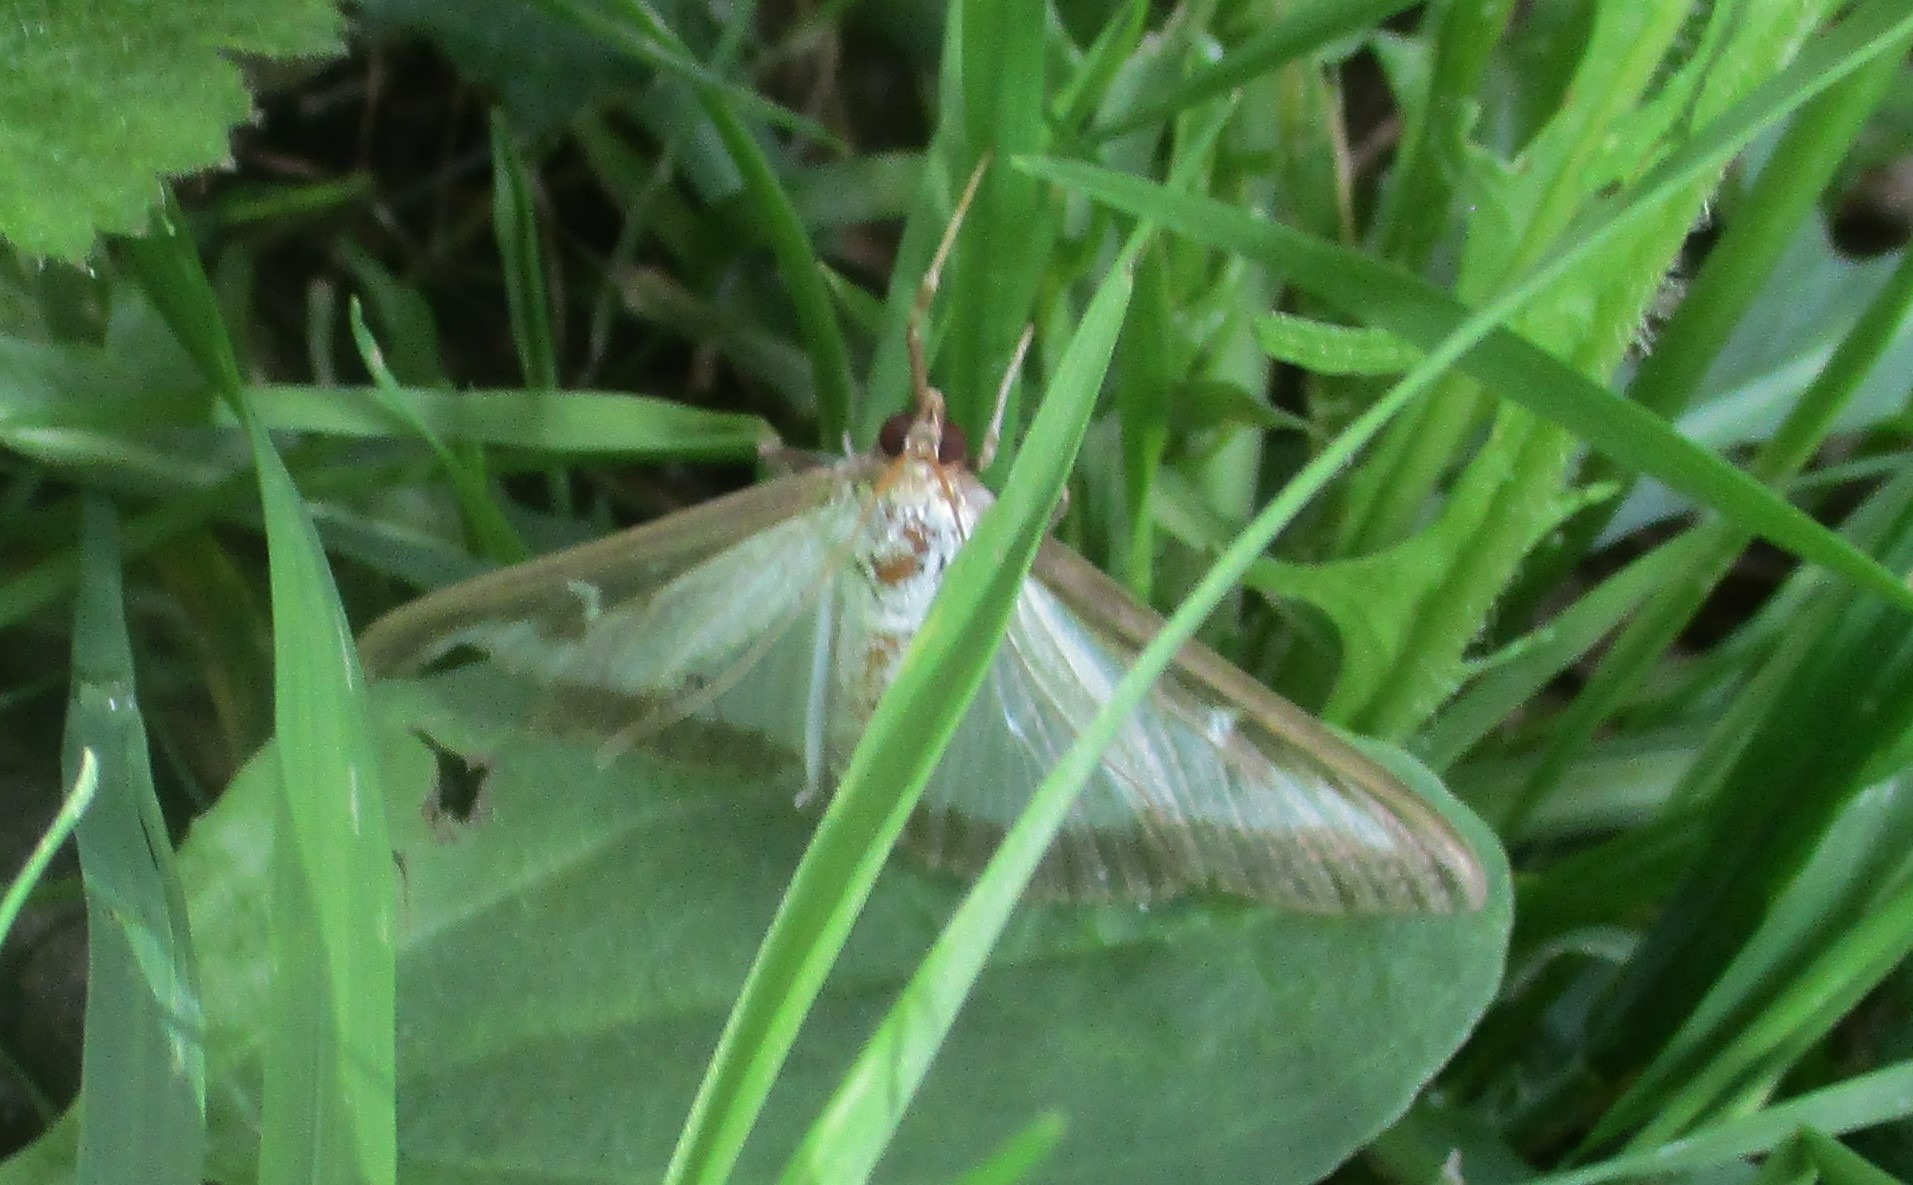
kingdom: Animalia
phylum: Arthropoda
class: Insecta
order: Lepidoptera
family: Crambidae
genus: Cydalima
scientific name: Cydalima perspectalis
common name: Buksbomhalvmøl
